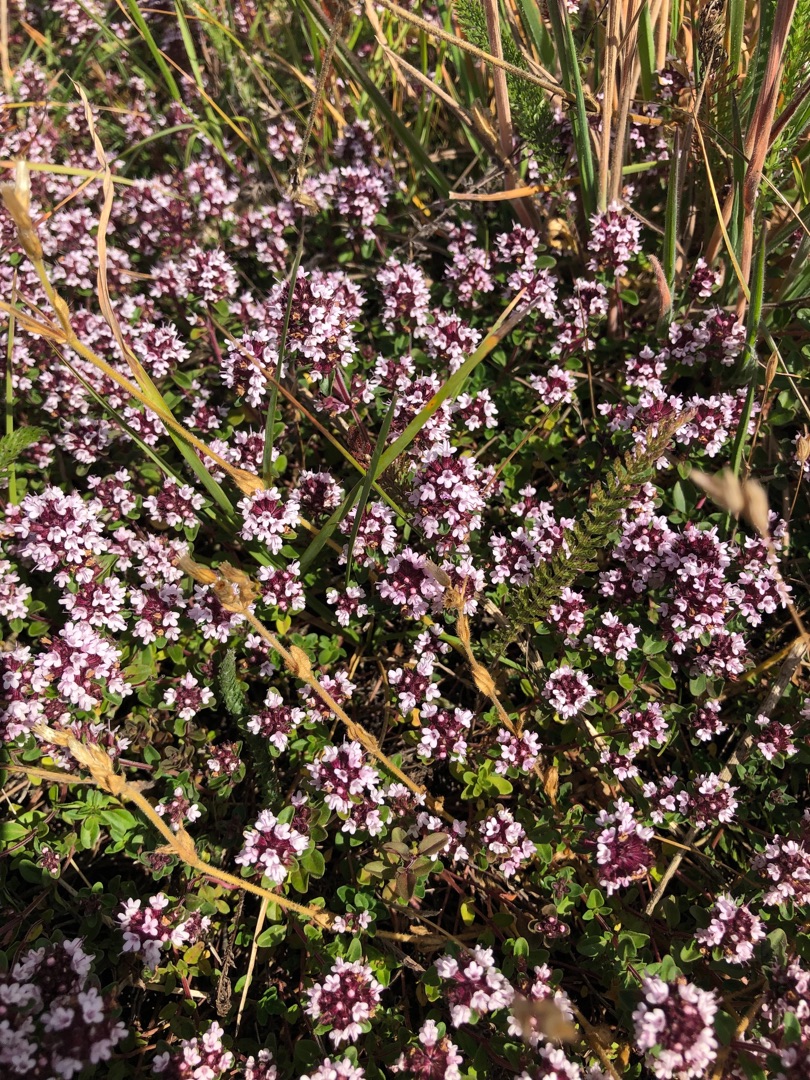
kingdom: Plantae
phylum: Tracheophyta
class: Magnoliopsida
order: Lamiales
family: Lamiaceae
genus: Thymus
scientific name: Thymus pulegioides
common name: Bredbladet timian
